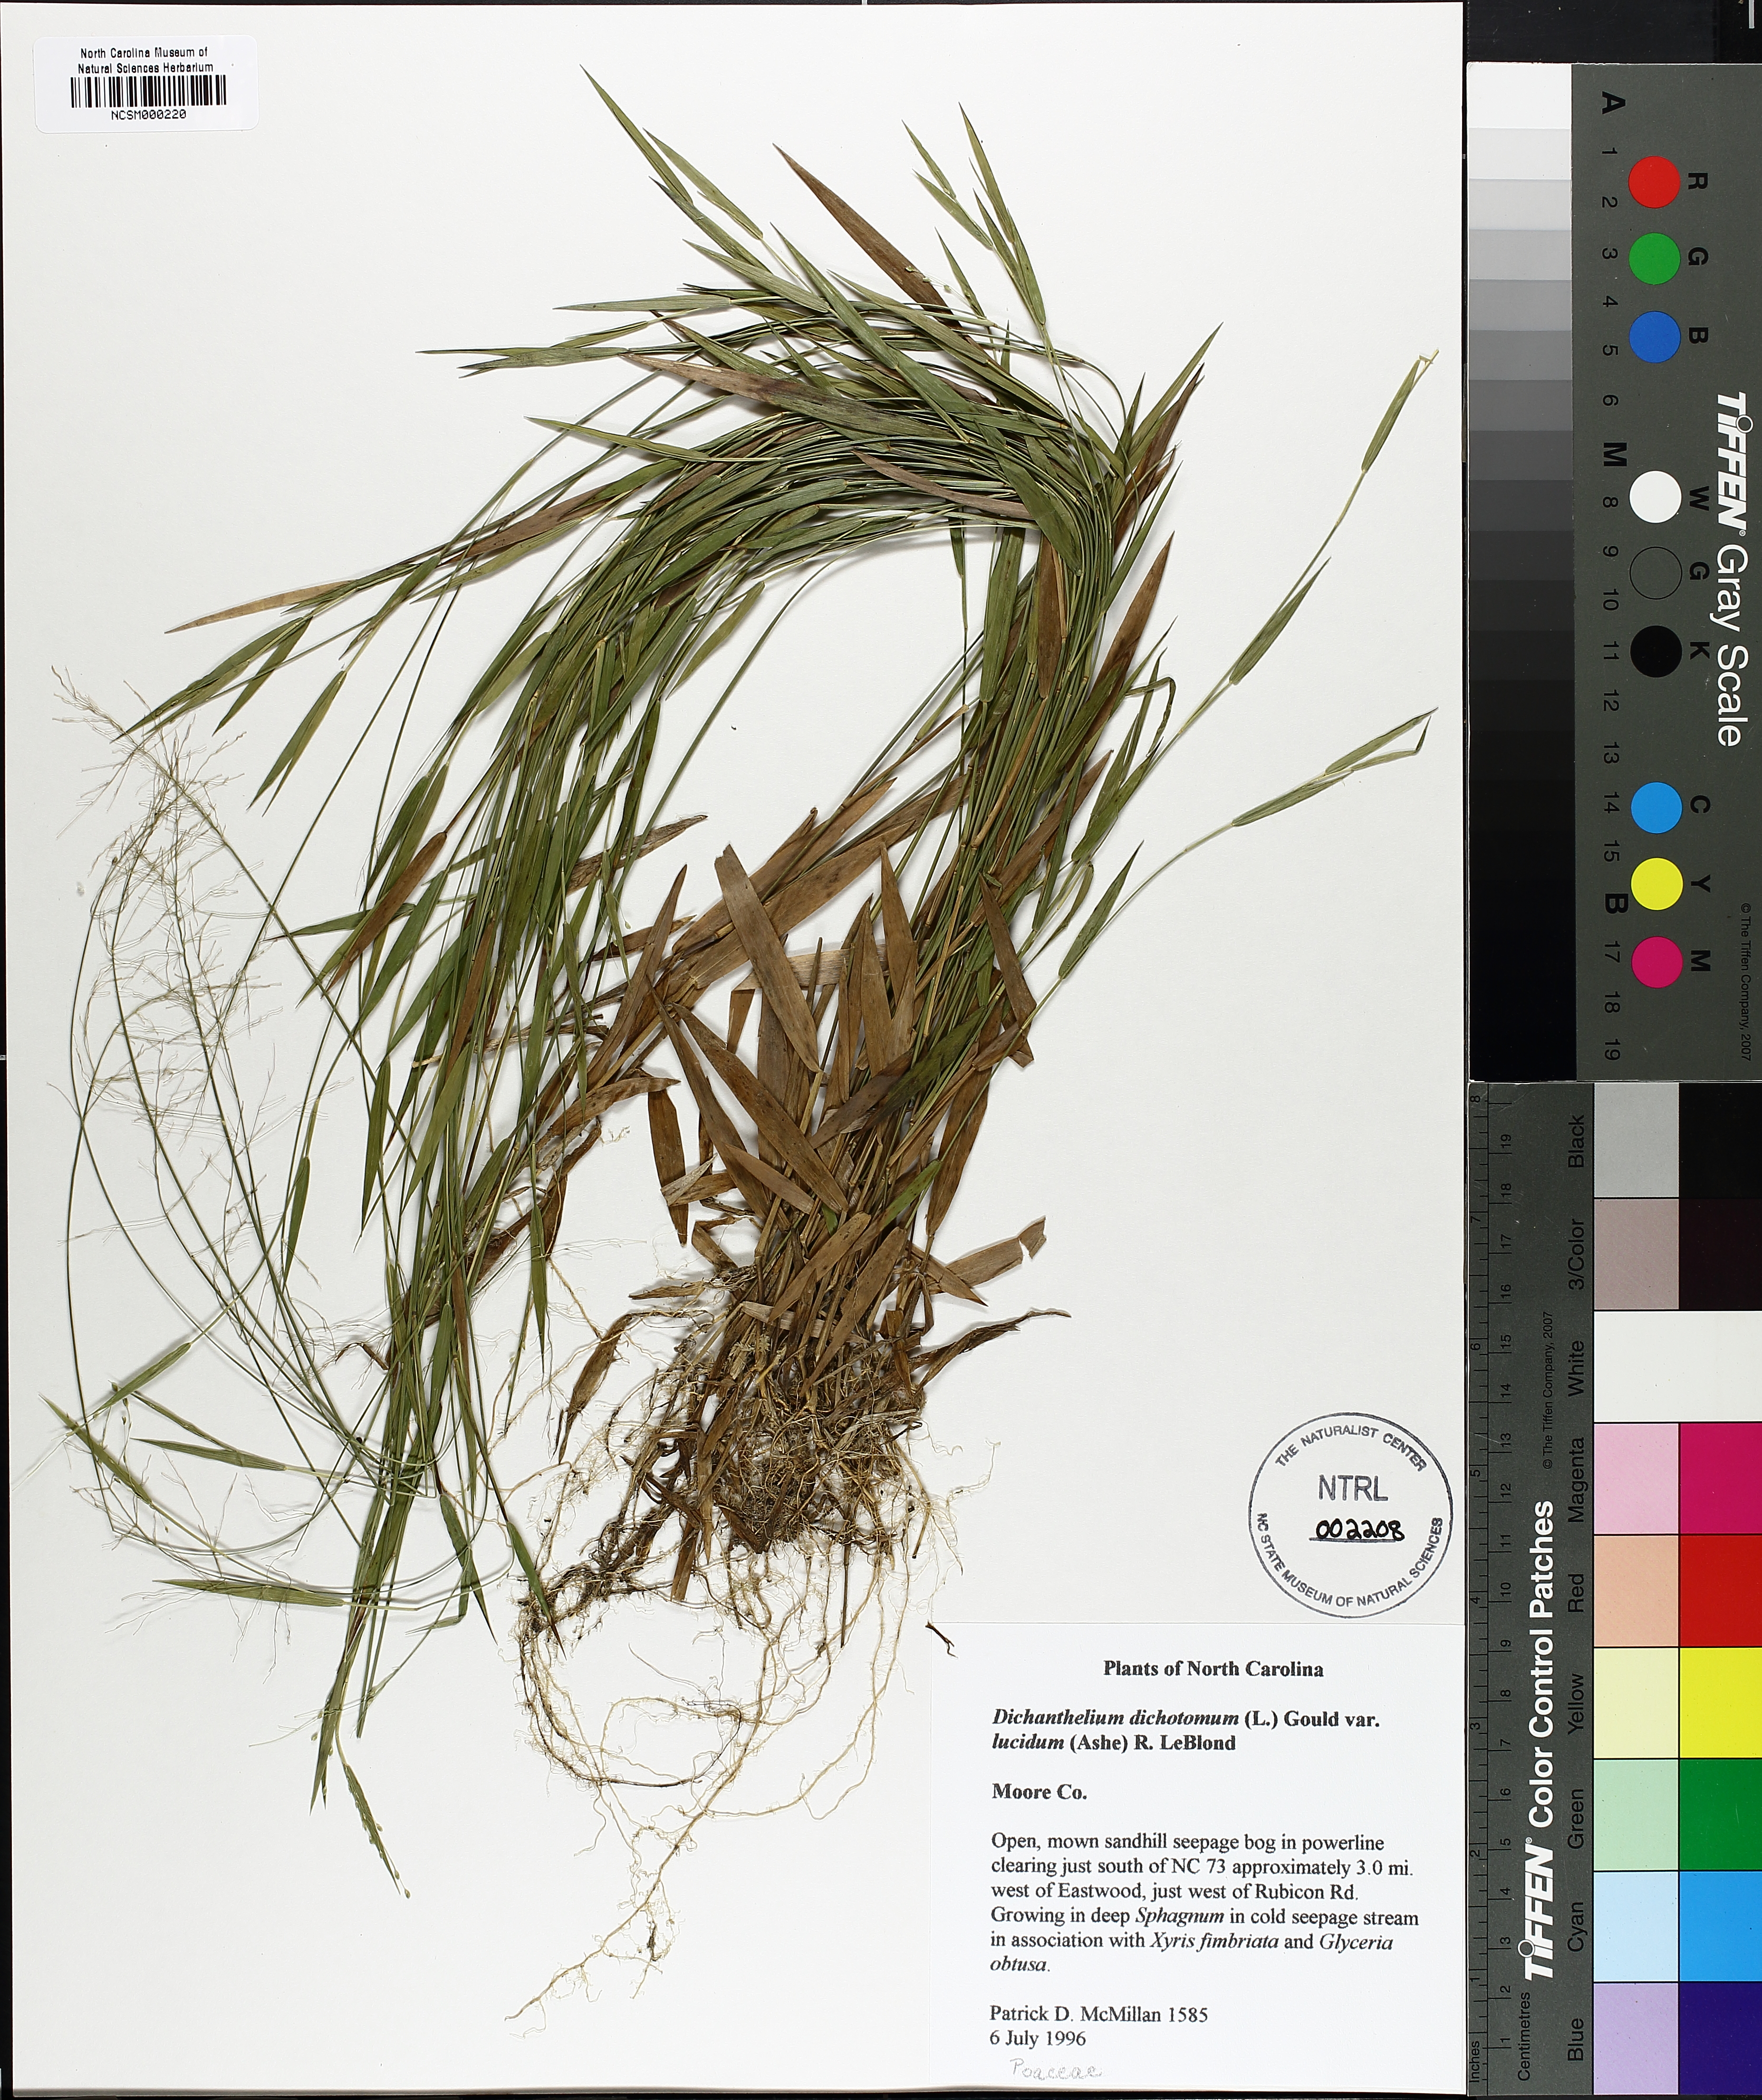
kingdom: Plantae
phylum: Tracheophyta
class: Liliopsida
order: Poales
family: Poaceae
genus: Dichanthelium
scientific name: Dichanthelium lucidum
